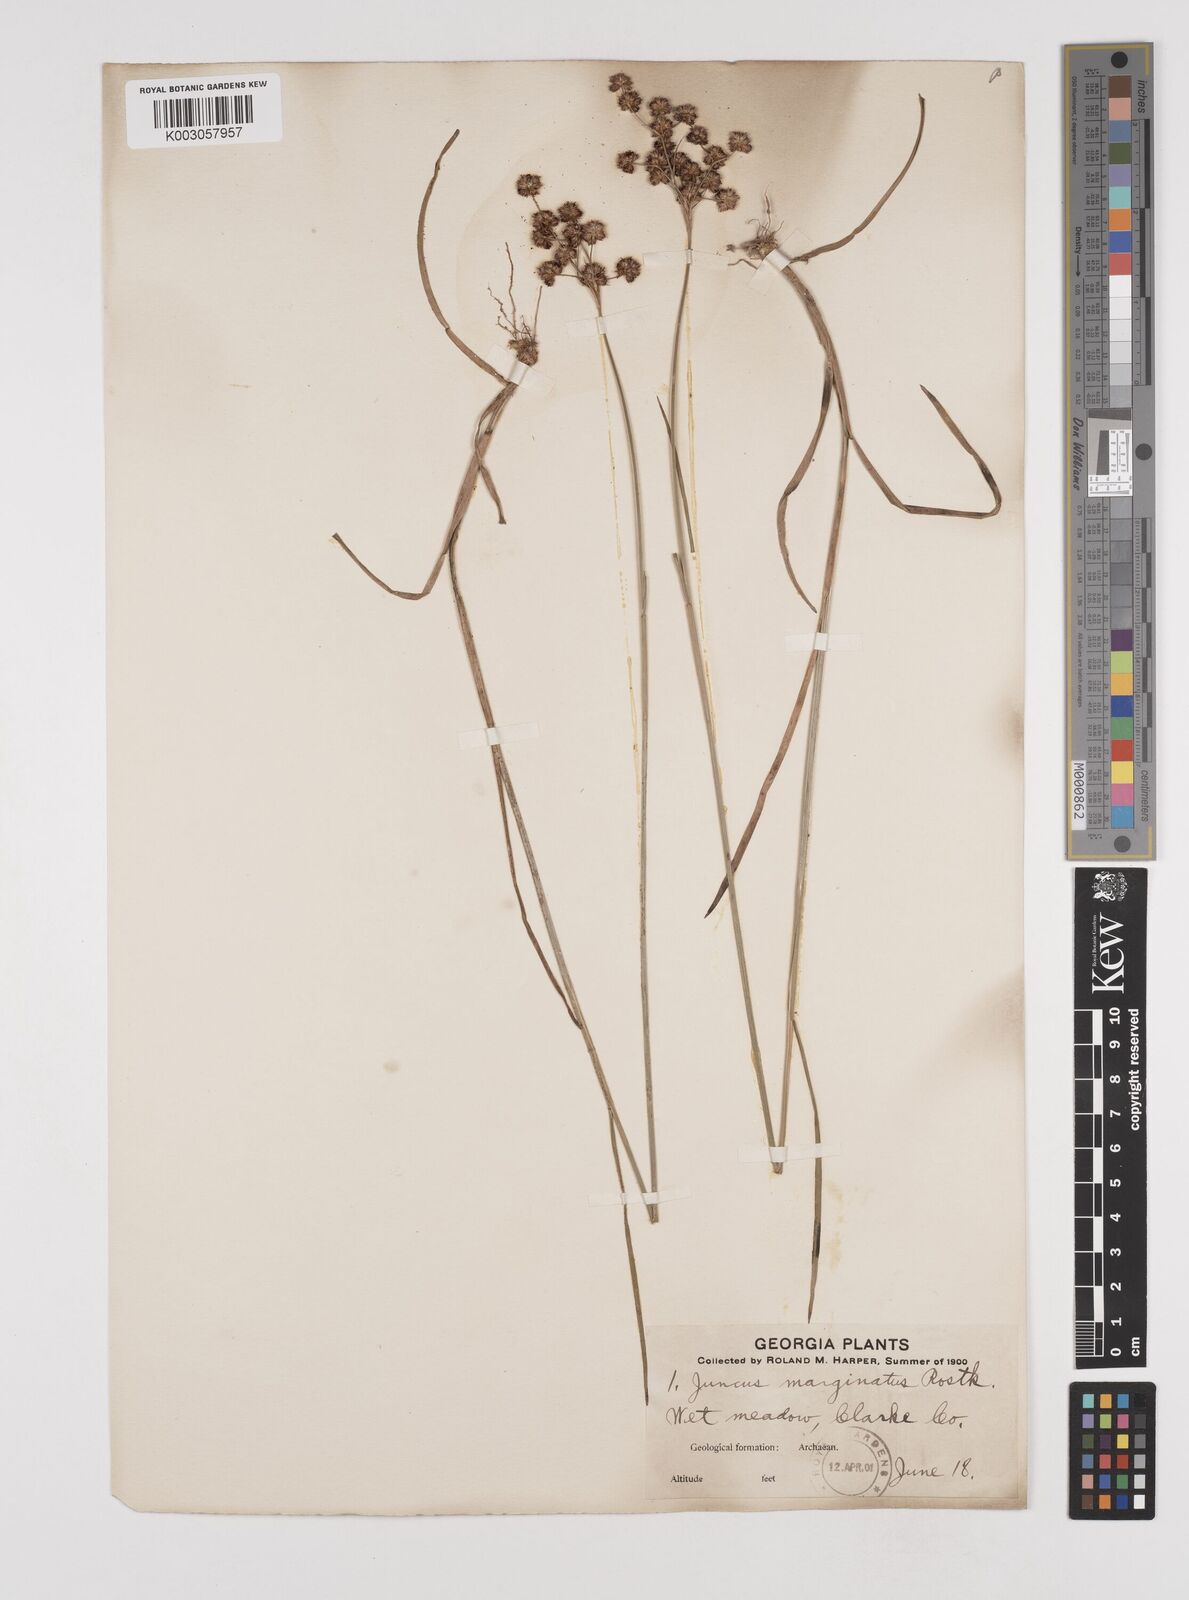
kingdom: Plantae
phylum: Tracheophyta
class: Liliopsida
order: Poales
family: Juncaceae
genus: Juncus
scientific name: Juncus marginatus
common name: Grass-leaf rush
